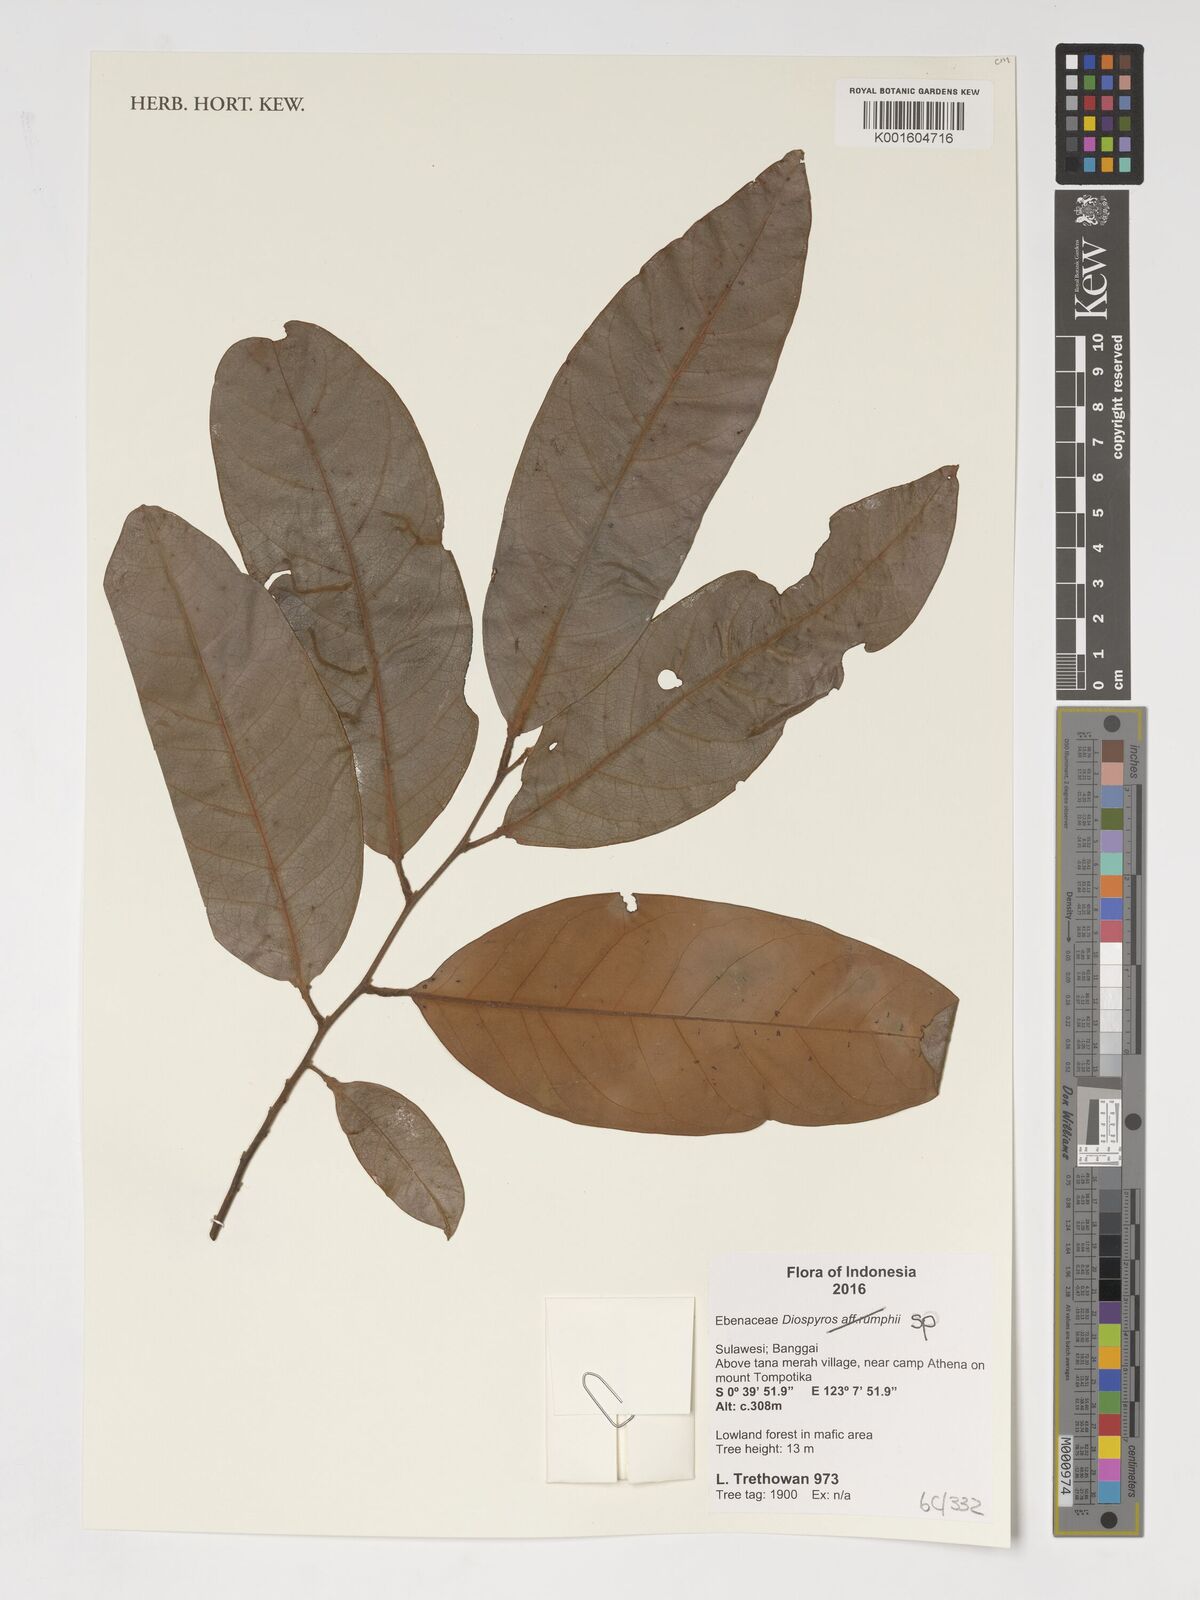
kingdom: Plantae
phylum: Tracheophyta
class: Magnoliopsida
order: Ericales
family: Ebenaceae
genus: Diospyros
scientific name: Diospyros
